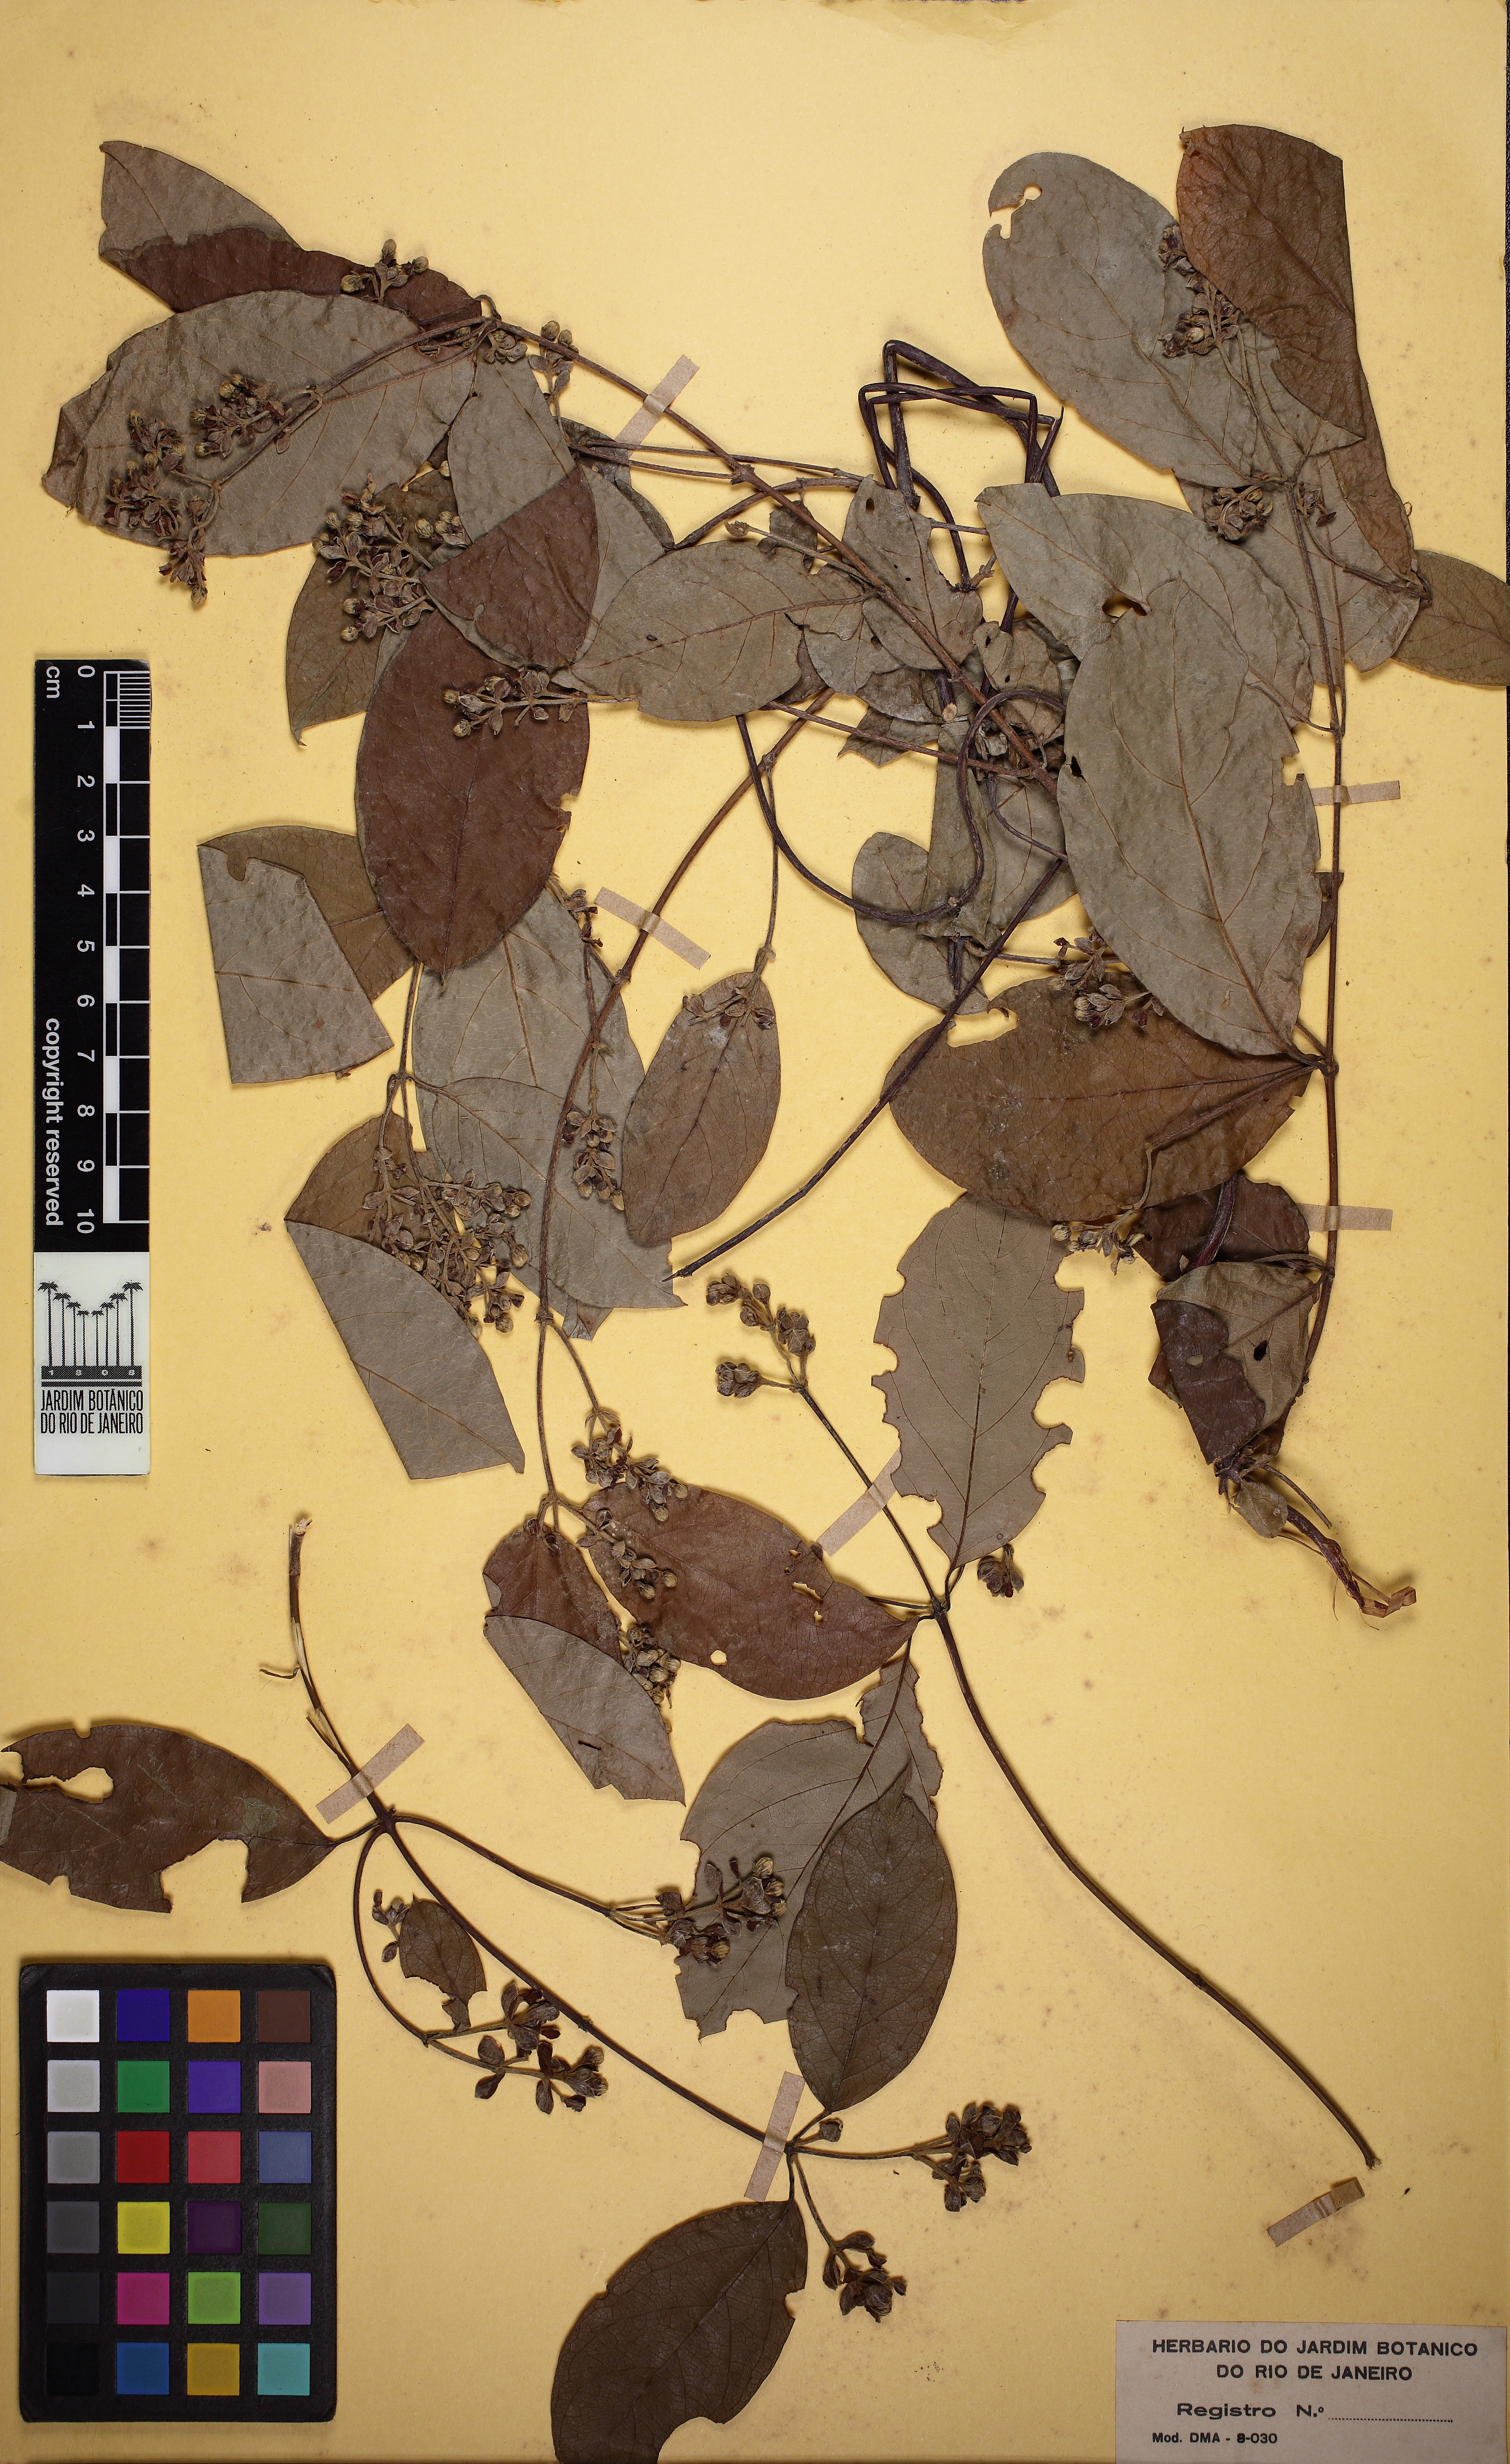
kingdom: Plantae
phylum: Tracheophyta
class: Magnoliopsida
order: Malpighiales
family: Malpighiaceae
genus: Dicella
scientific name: Dicella bracteosa
